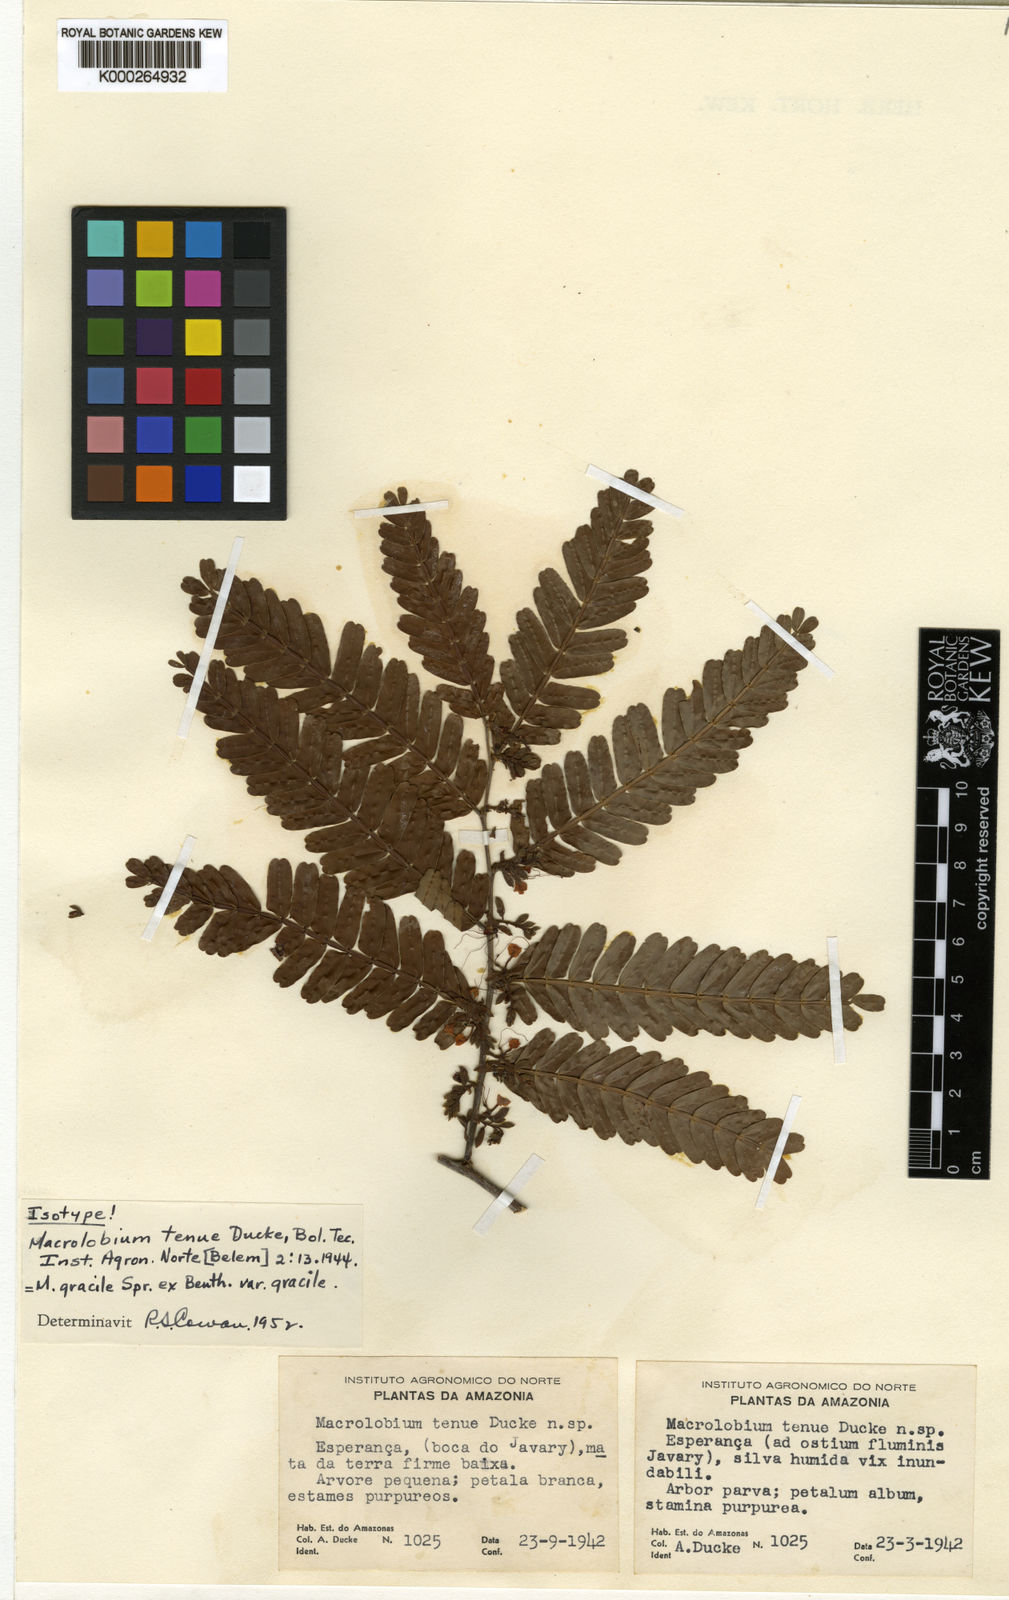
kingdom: Plantae
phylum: Tracheophyta
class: Magnoliopsida
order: Fabales
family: Fabaceae
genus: Macrolobium
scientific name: Macrolobium gracile
